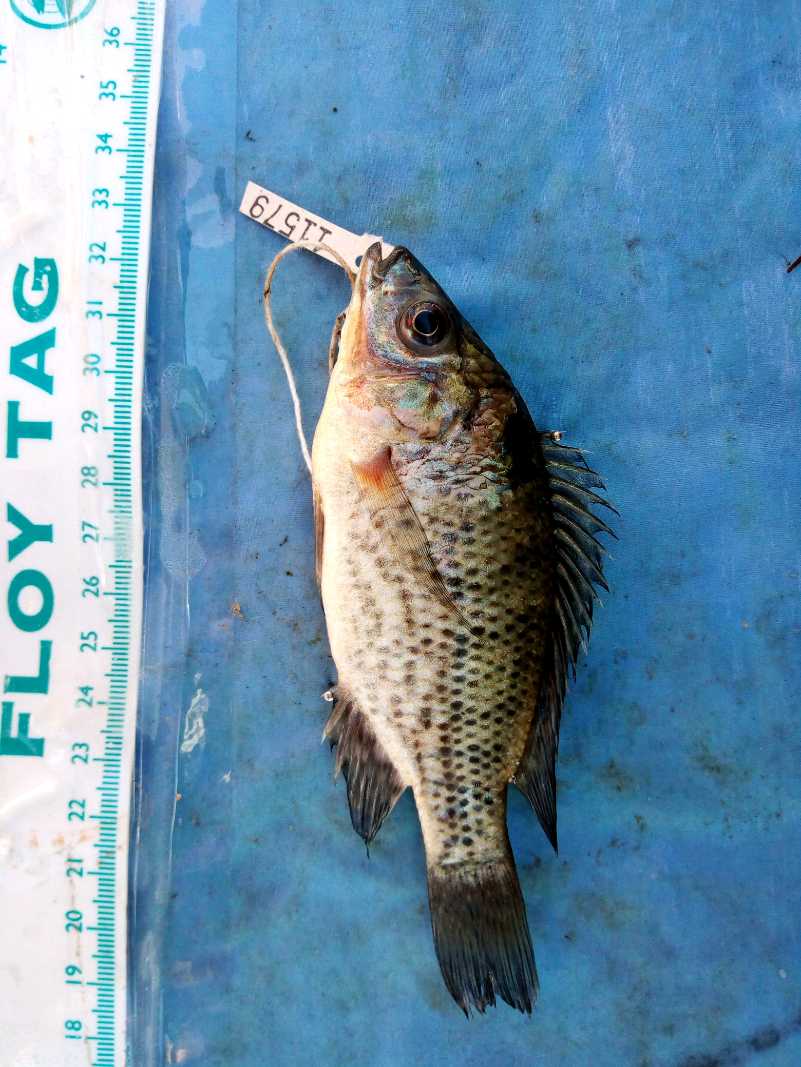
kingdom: Animalia
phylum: Chordata
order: Perciformes
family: Cichlidae
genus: Oreochromis
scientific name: Oreochromis jipe
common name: Jipe tilapia
